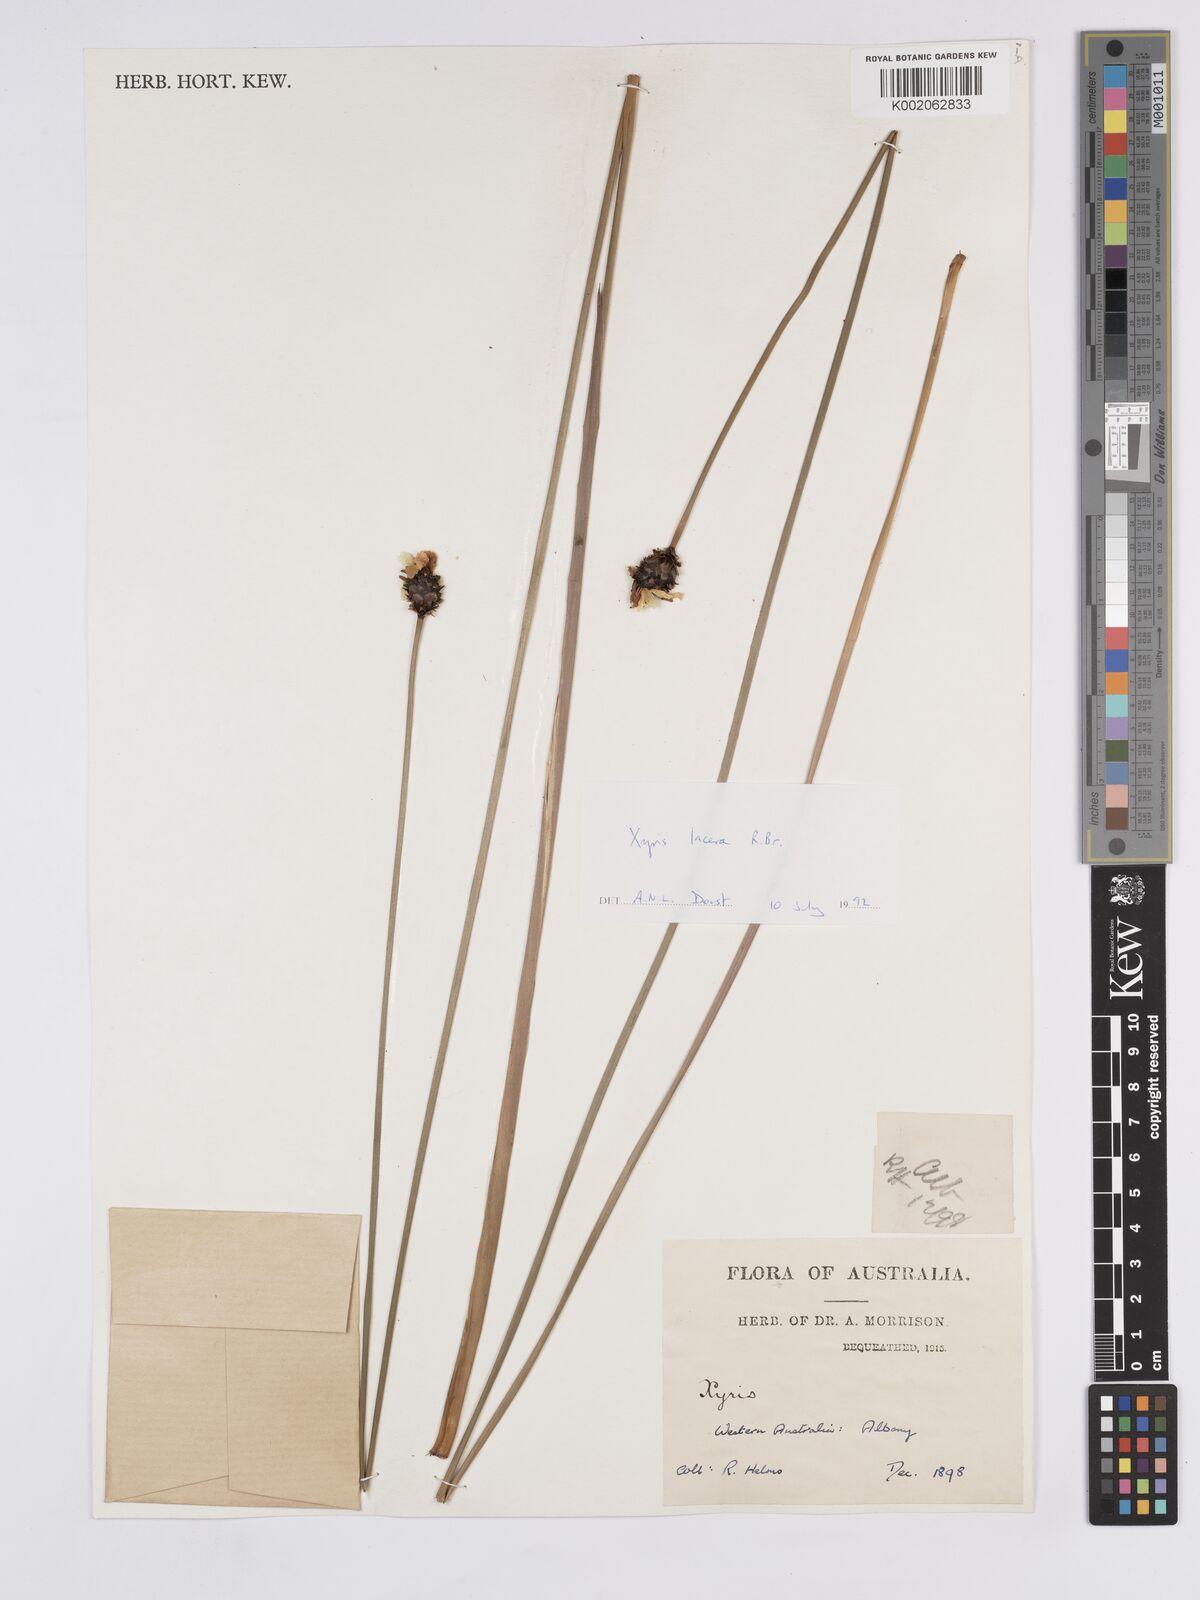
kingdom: Plantae
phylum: Tracheophyta
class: Liliopsida
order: Poales
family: Xyridaceae
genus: Xyris
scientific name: Xyris lacera
